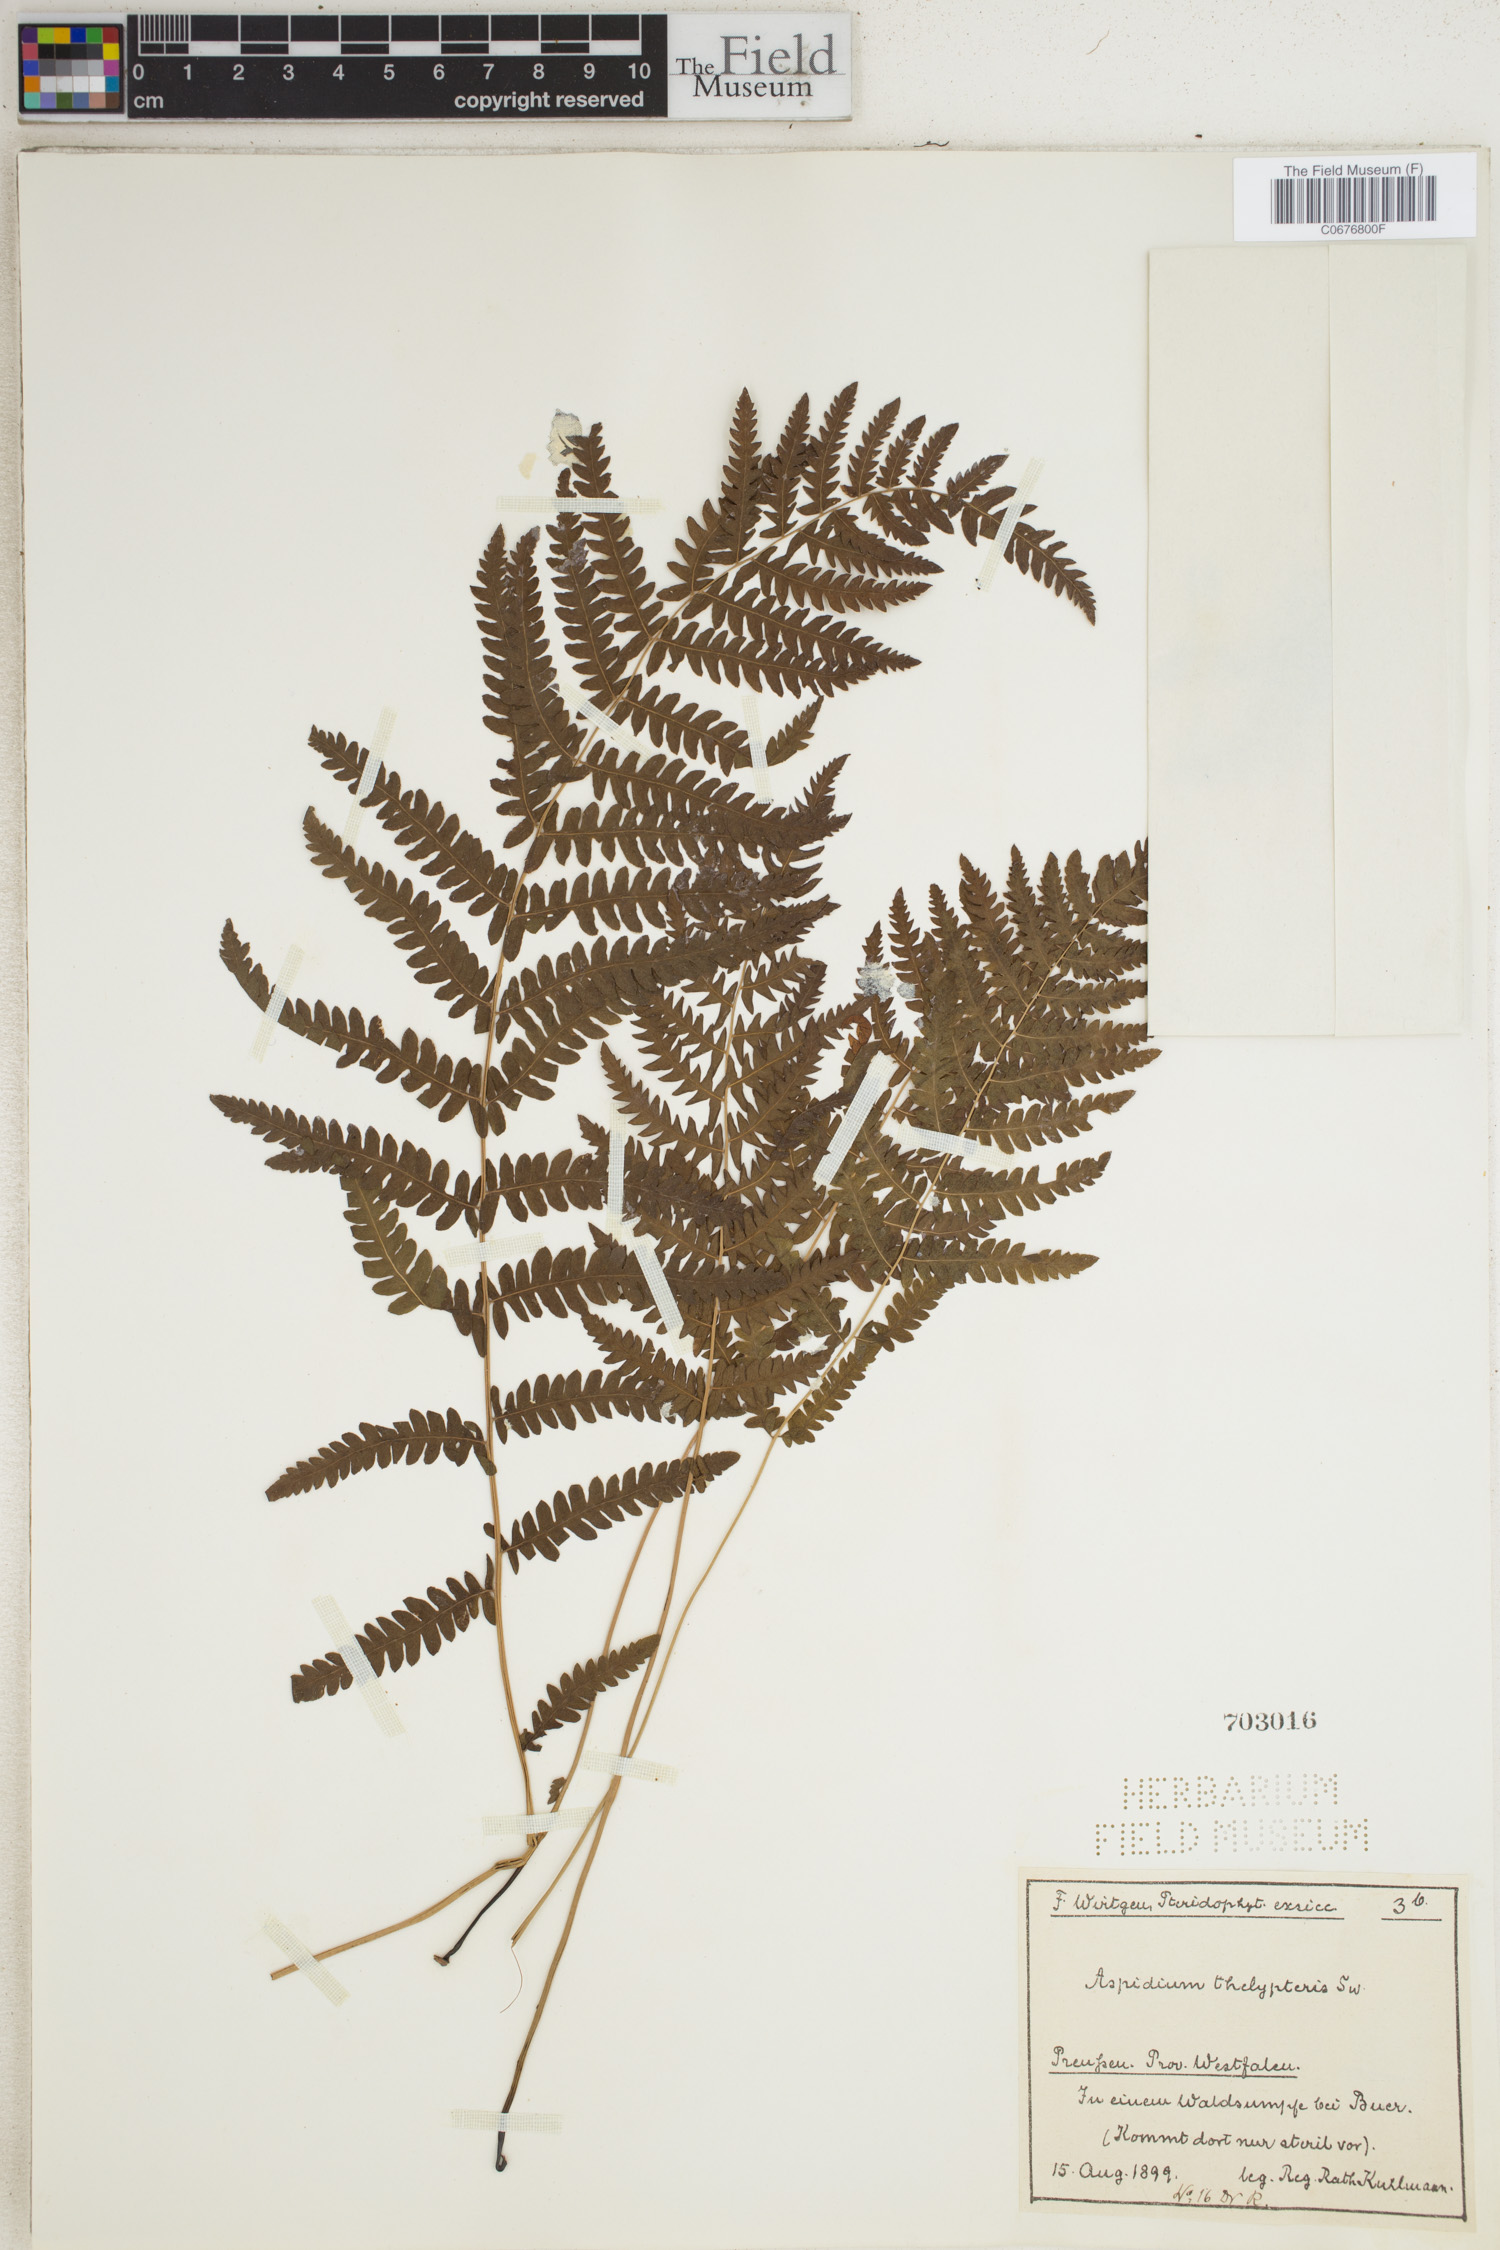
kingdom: Plantae
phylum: Tracheophyta
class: Polypodiopsida
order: Polypodiales
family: Thelypteridaceae
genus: Thelypteris
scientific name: Thelypteris palustris
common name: Marsh fern
